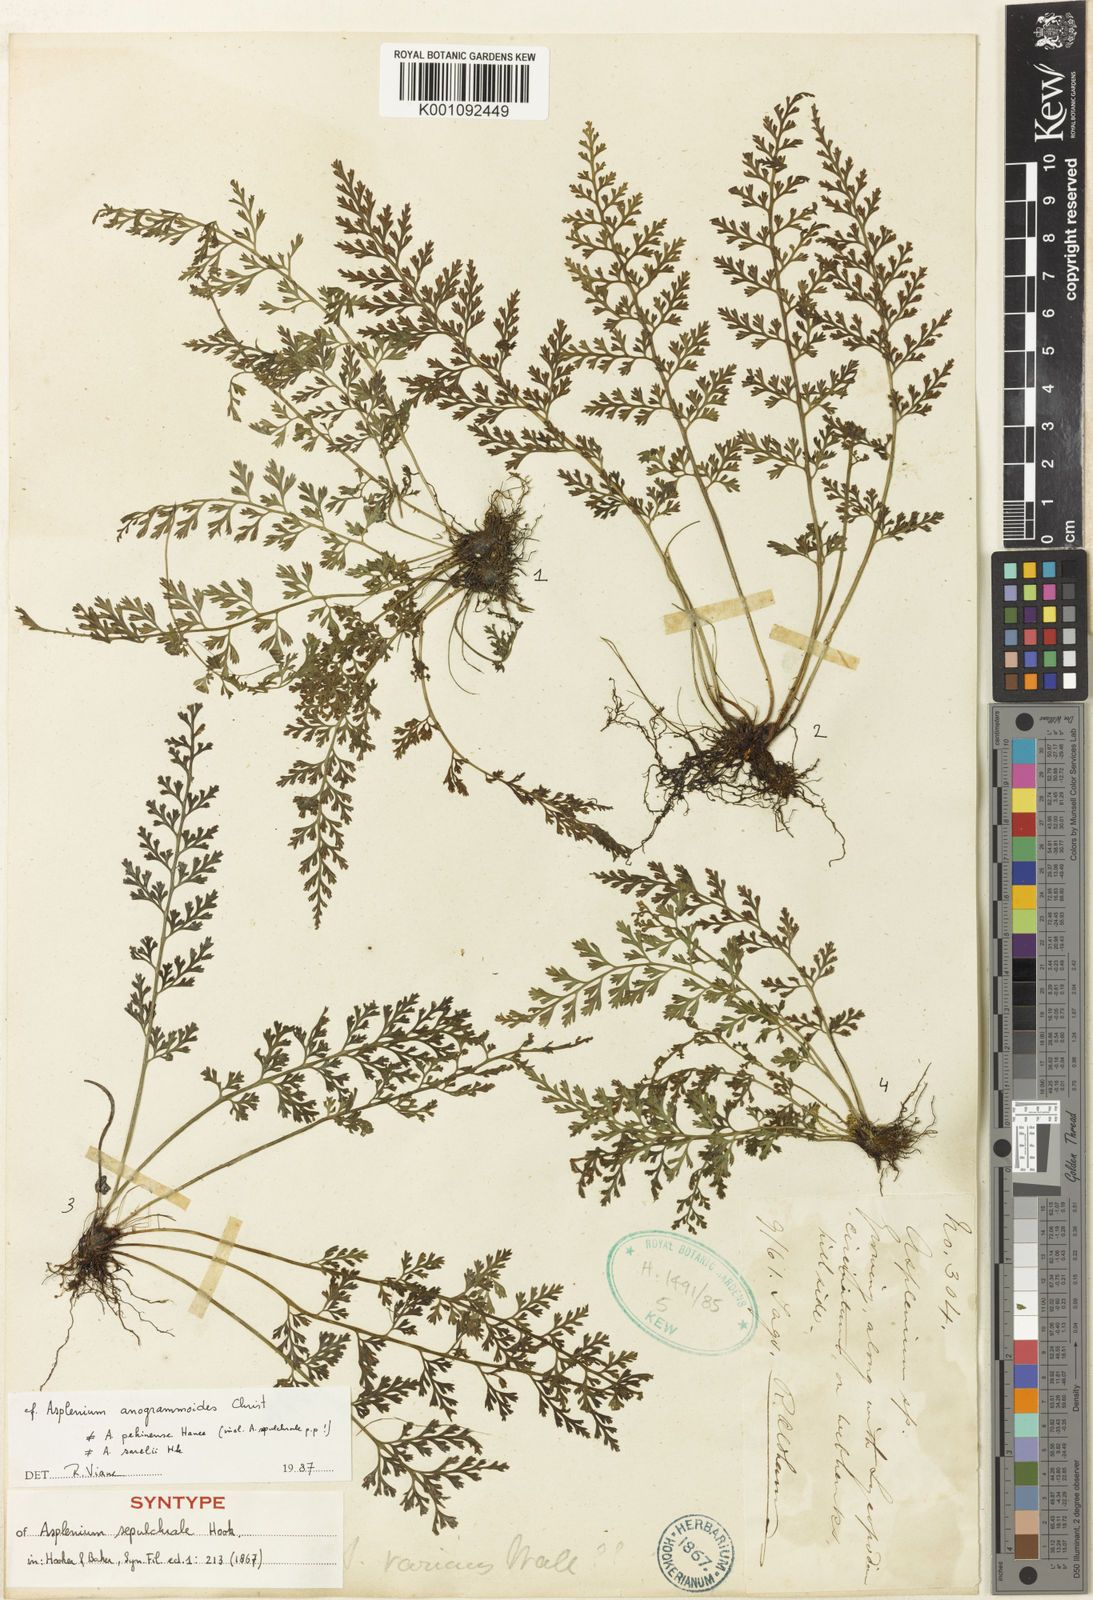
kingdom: Plantae
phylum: Tracheophyta
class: Polypodiopsida
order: Polypodiales
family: Aspleniaceae
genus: Asplenium
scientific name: Asplenium sarelii
